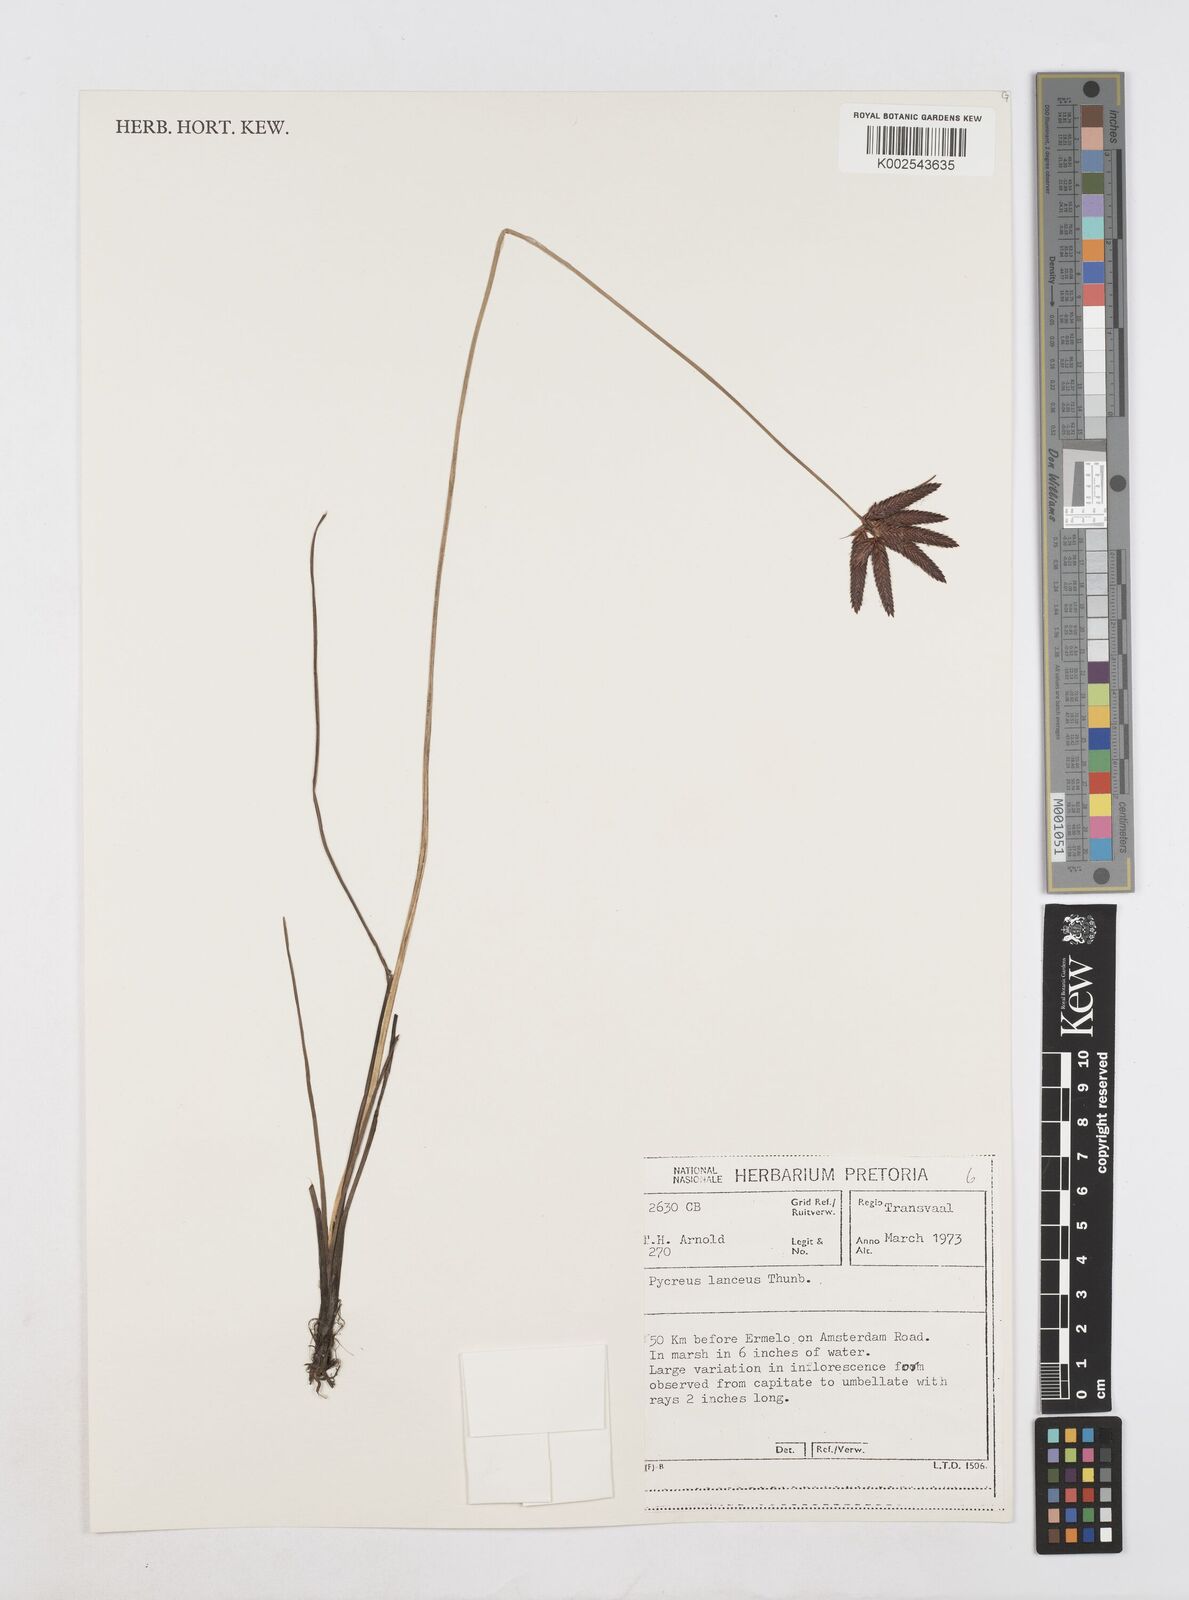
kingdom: Plantae
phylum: Tracheophyta
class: Liliopsida
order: Poales
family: Cyperaceae
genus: Cyperus
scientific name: Cyperus nitidus
